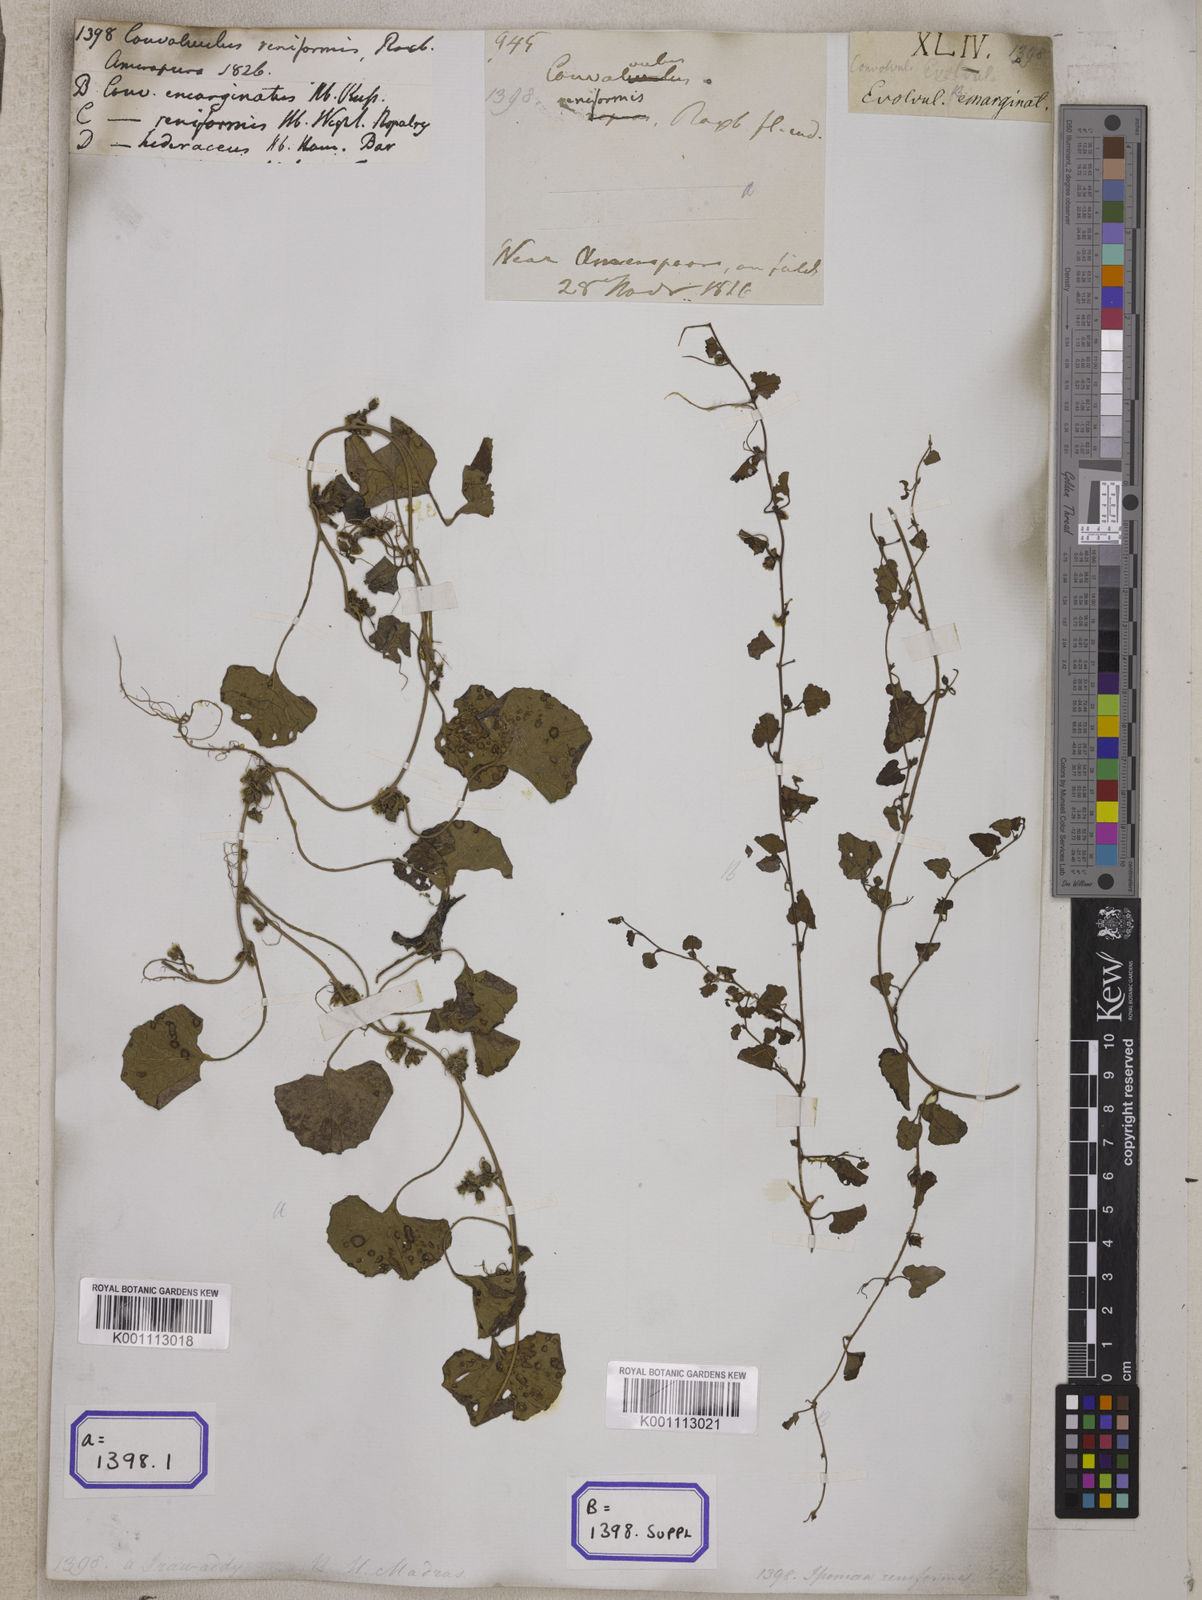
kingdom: Plantae
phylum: Tracheophyta
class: Magnoliopsida
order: Solanales
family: Convolvulaceae
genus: Merremia
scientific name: Merremia emarginata
